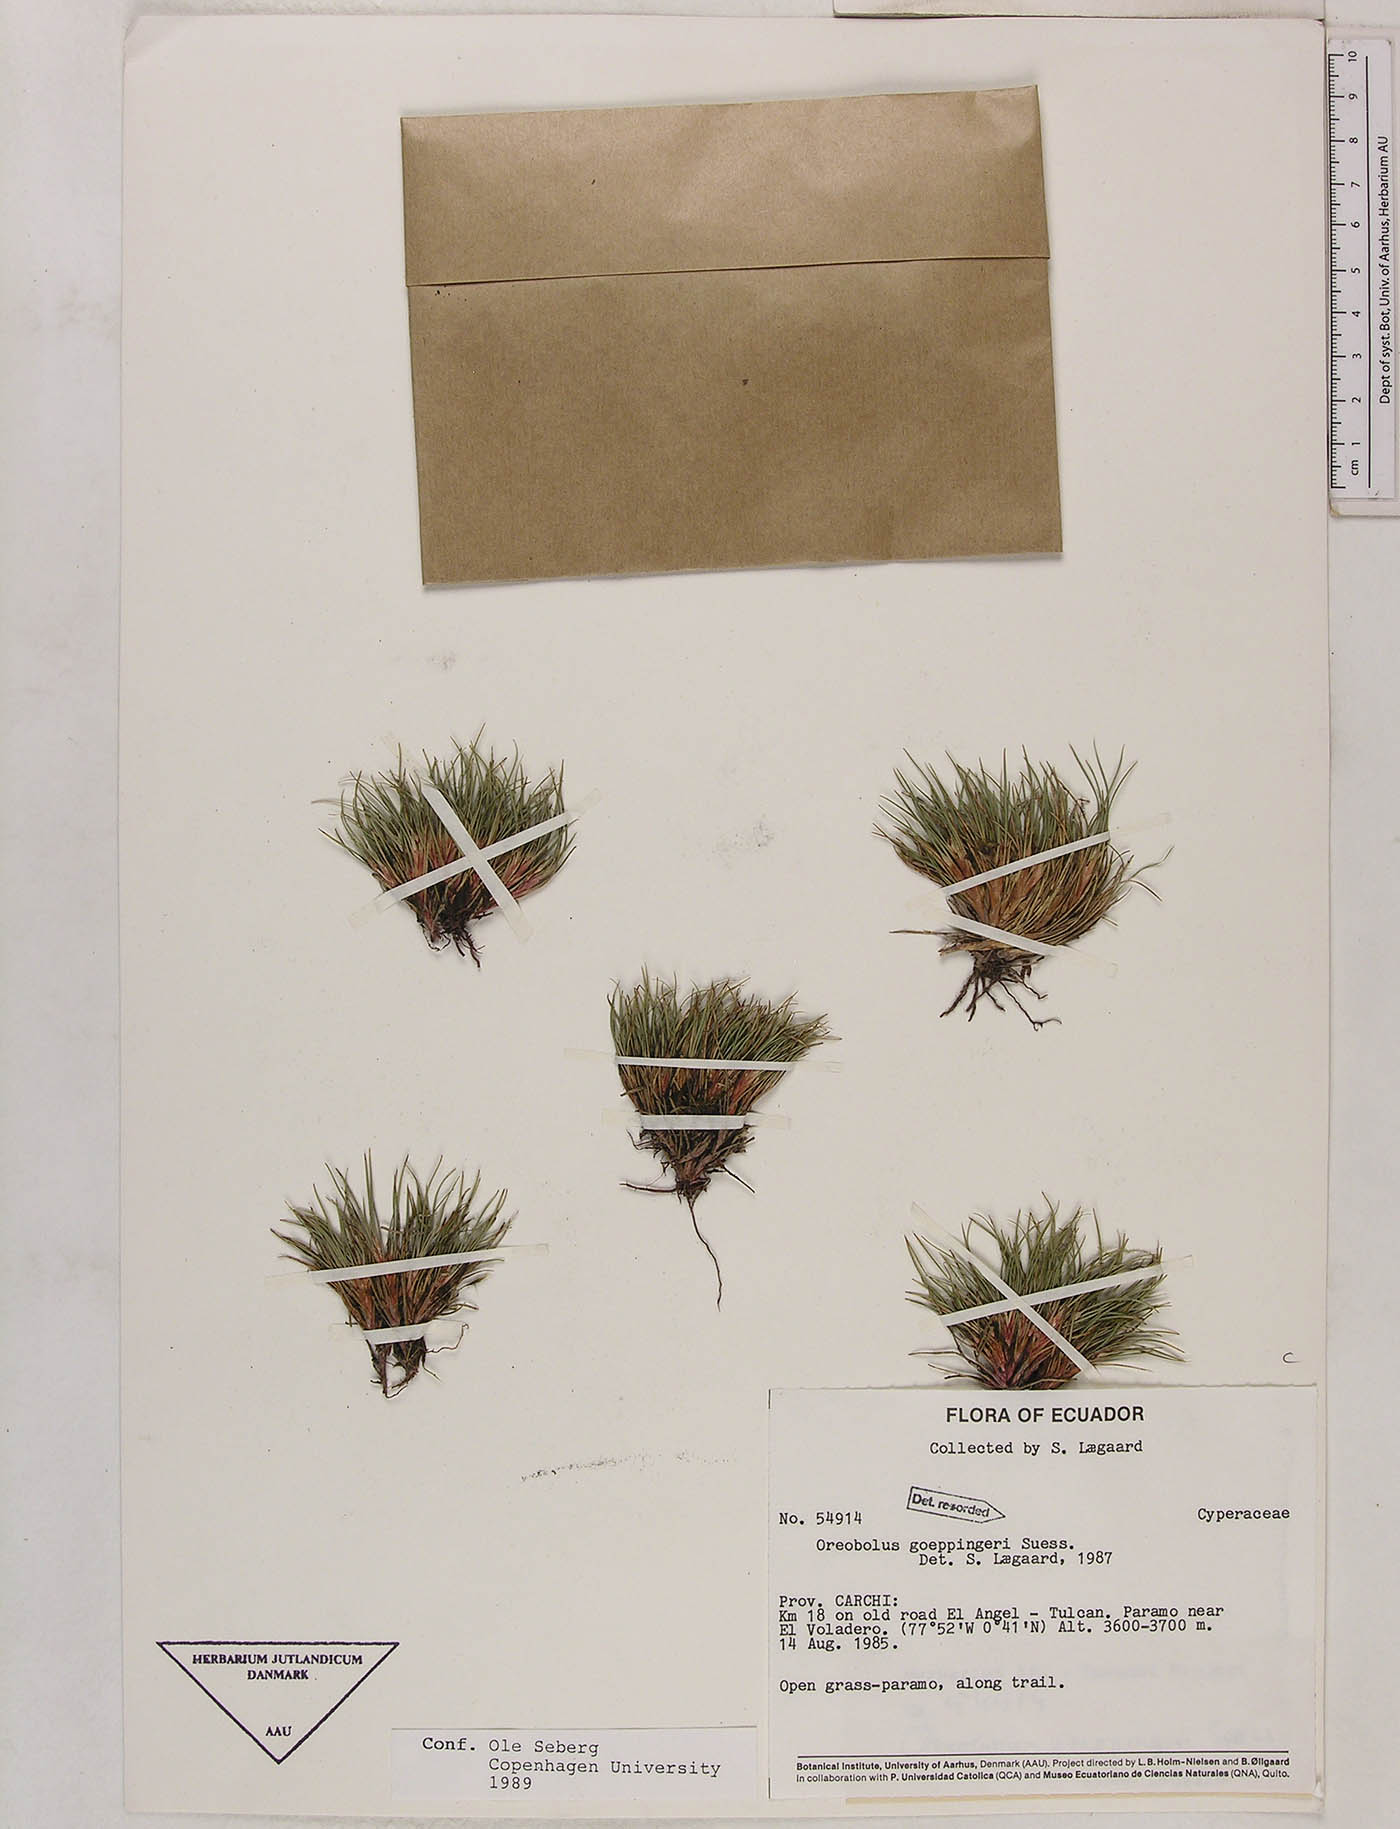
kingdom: Plantae
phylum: Tracheophyta
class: Liliopsida
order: Poales
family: Cyperaceae
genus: Oreobolus
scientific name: Oreobolus goeppingeri
